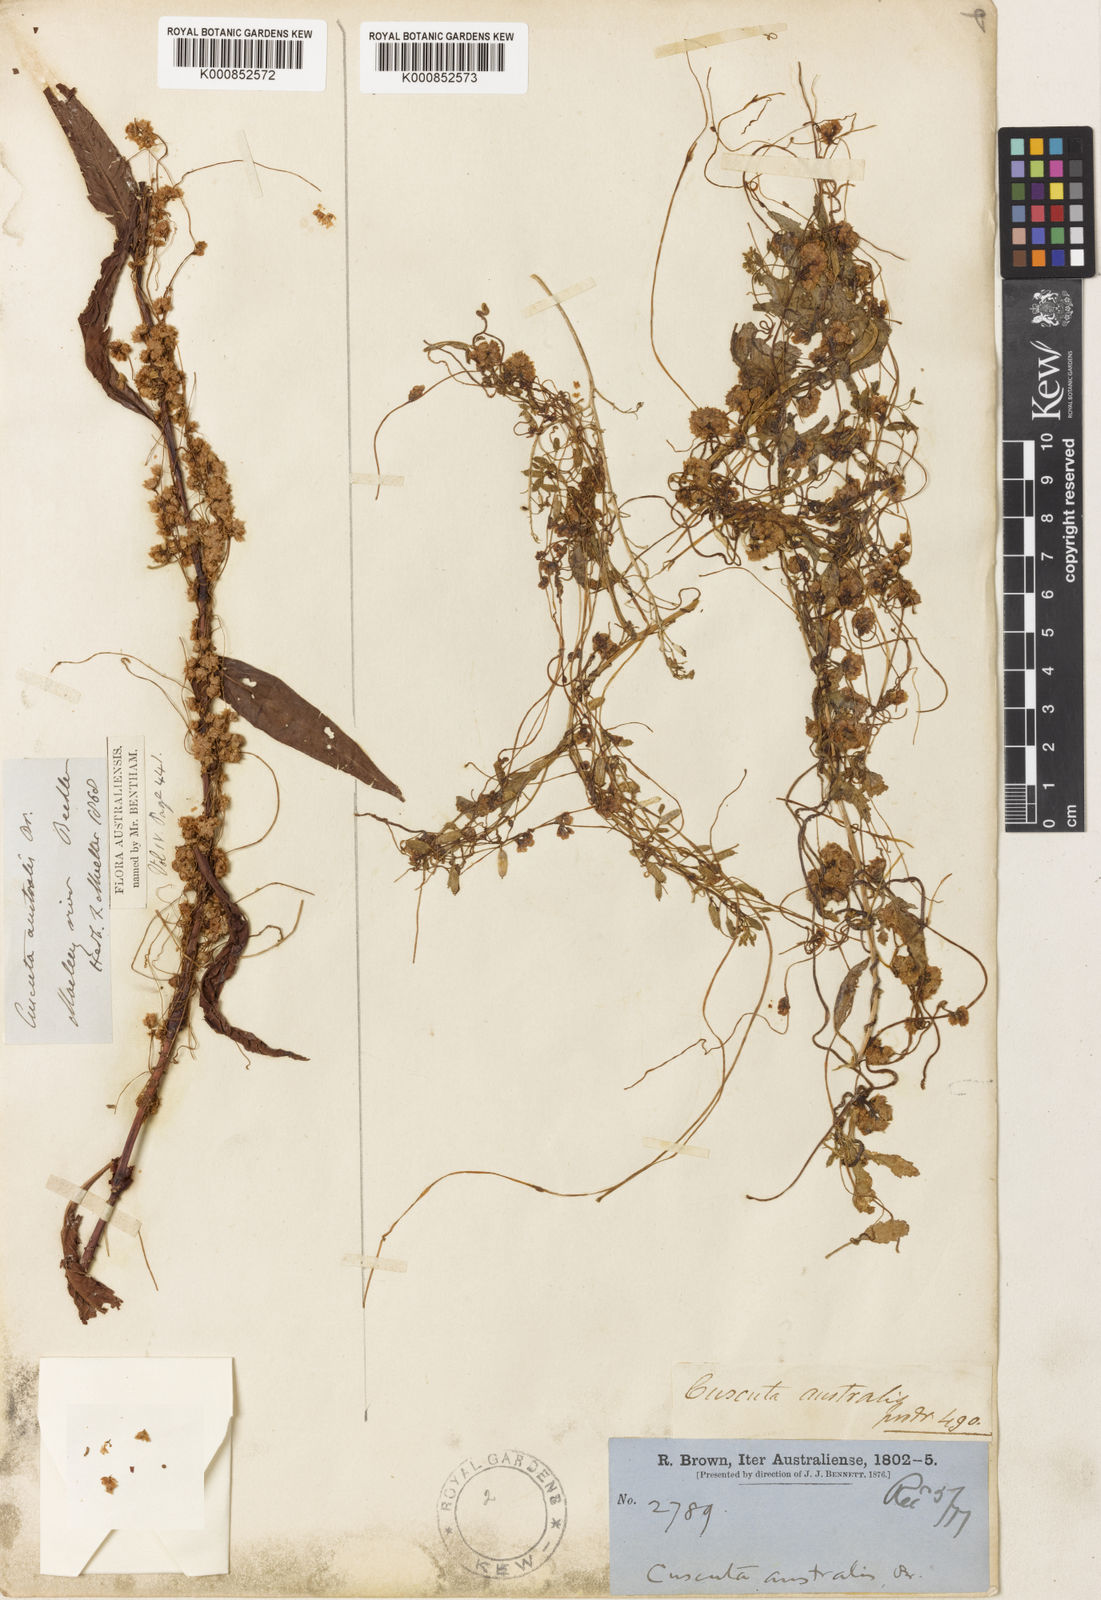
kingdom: Plantae
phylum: Tracheophyta
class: Magnoliopsida
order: Solanales
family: Convolvulaceae
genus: Cuscuta
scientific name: Cuscuta australis
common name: Australian dodder
